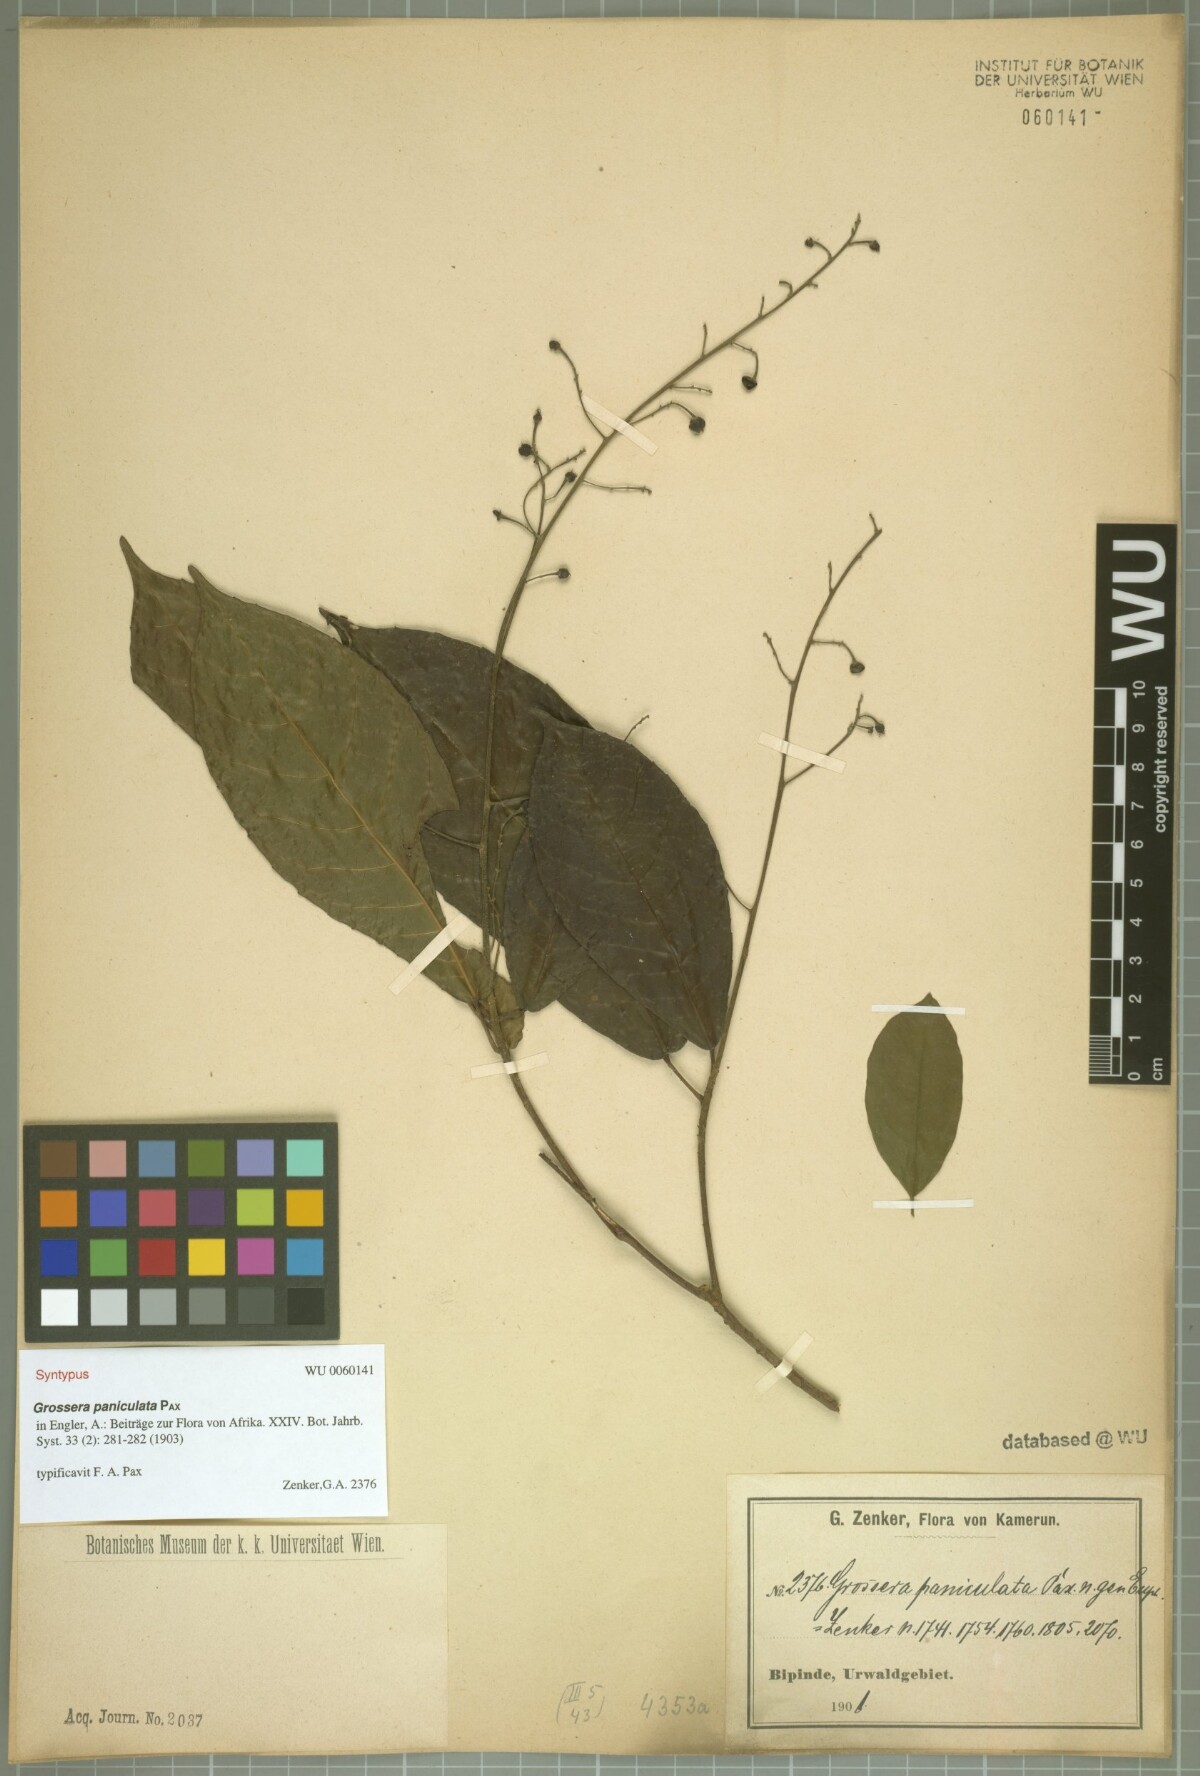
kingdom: Plantae
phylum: Tracheophyta
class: Magnoliopsida
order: Malpighiales
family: Euphorbiaceae
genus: Grossera
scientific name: Grossera paniculata
